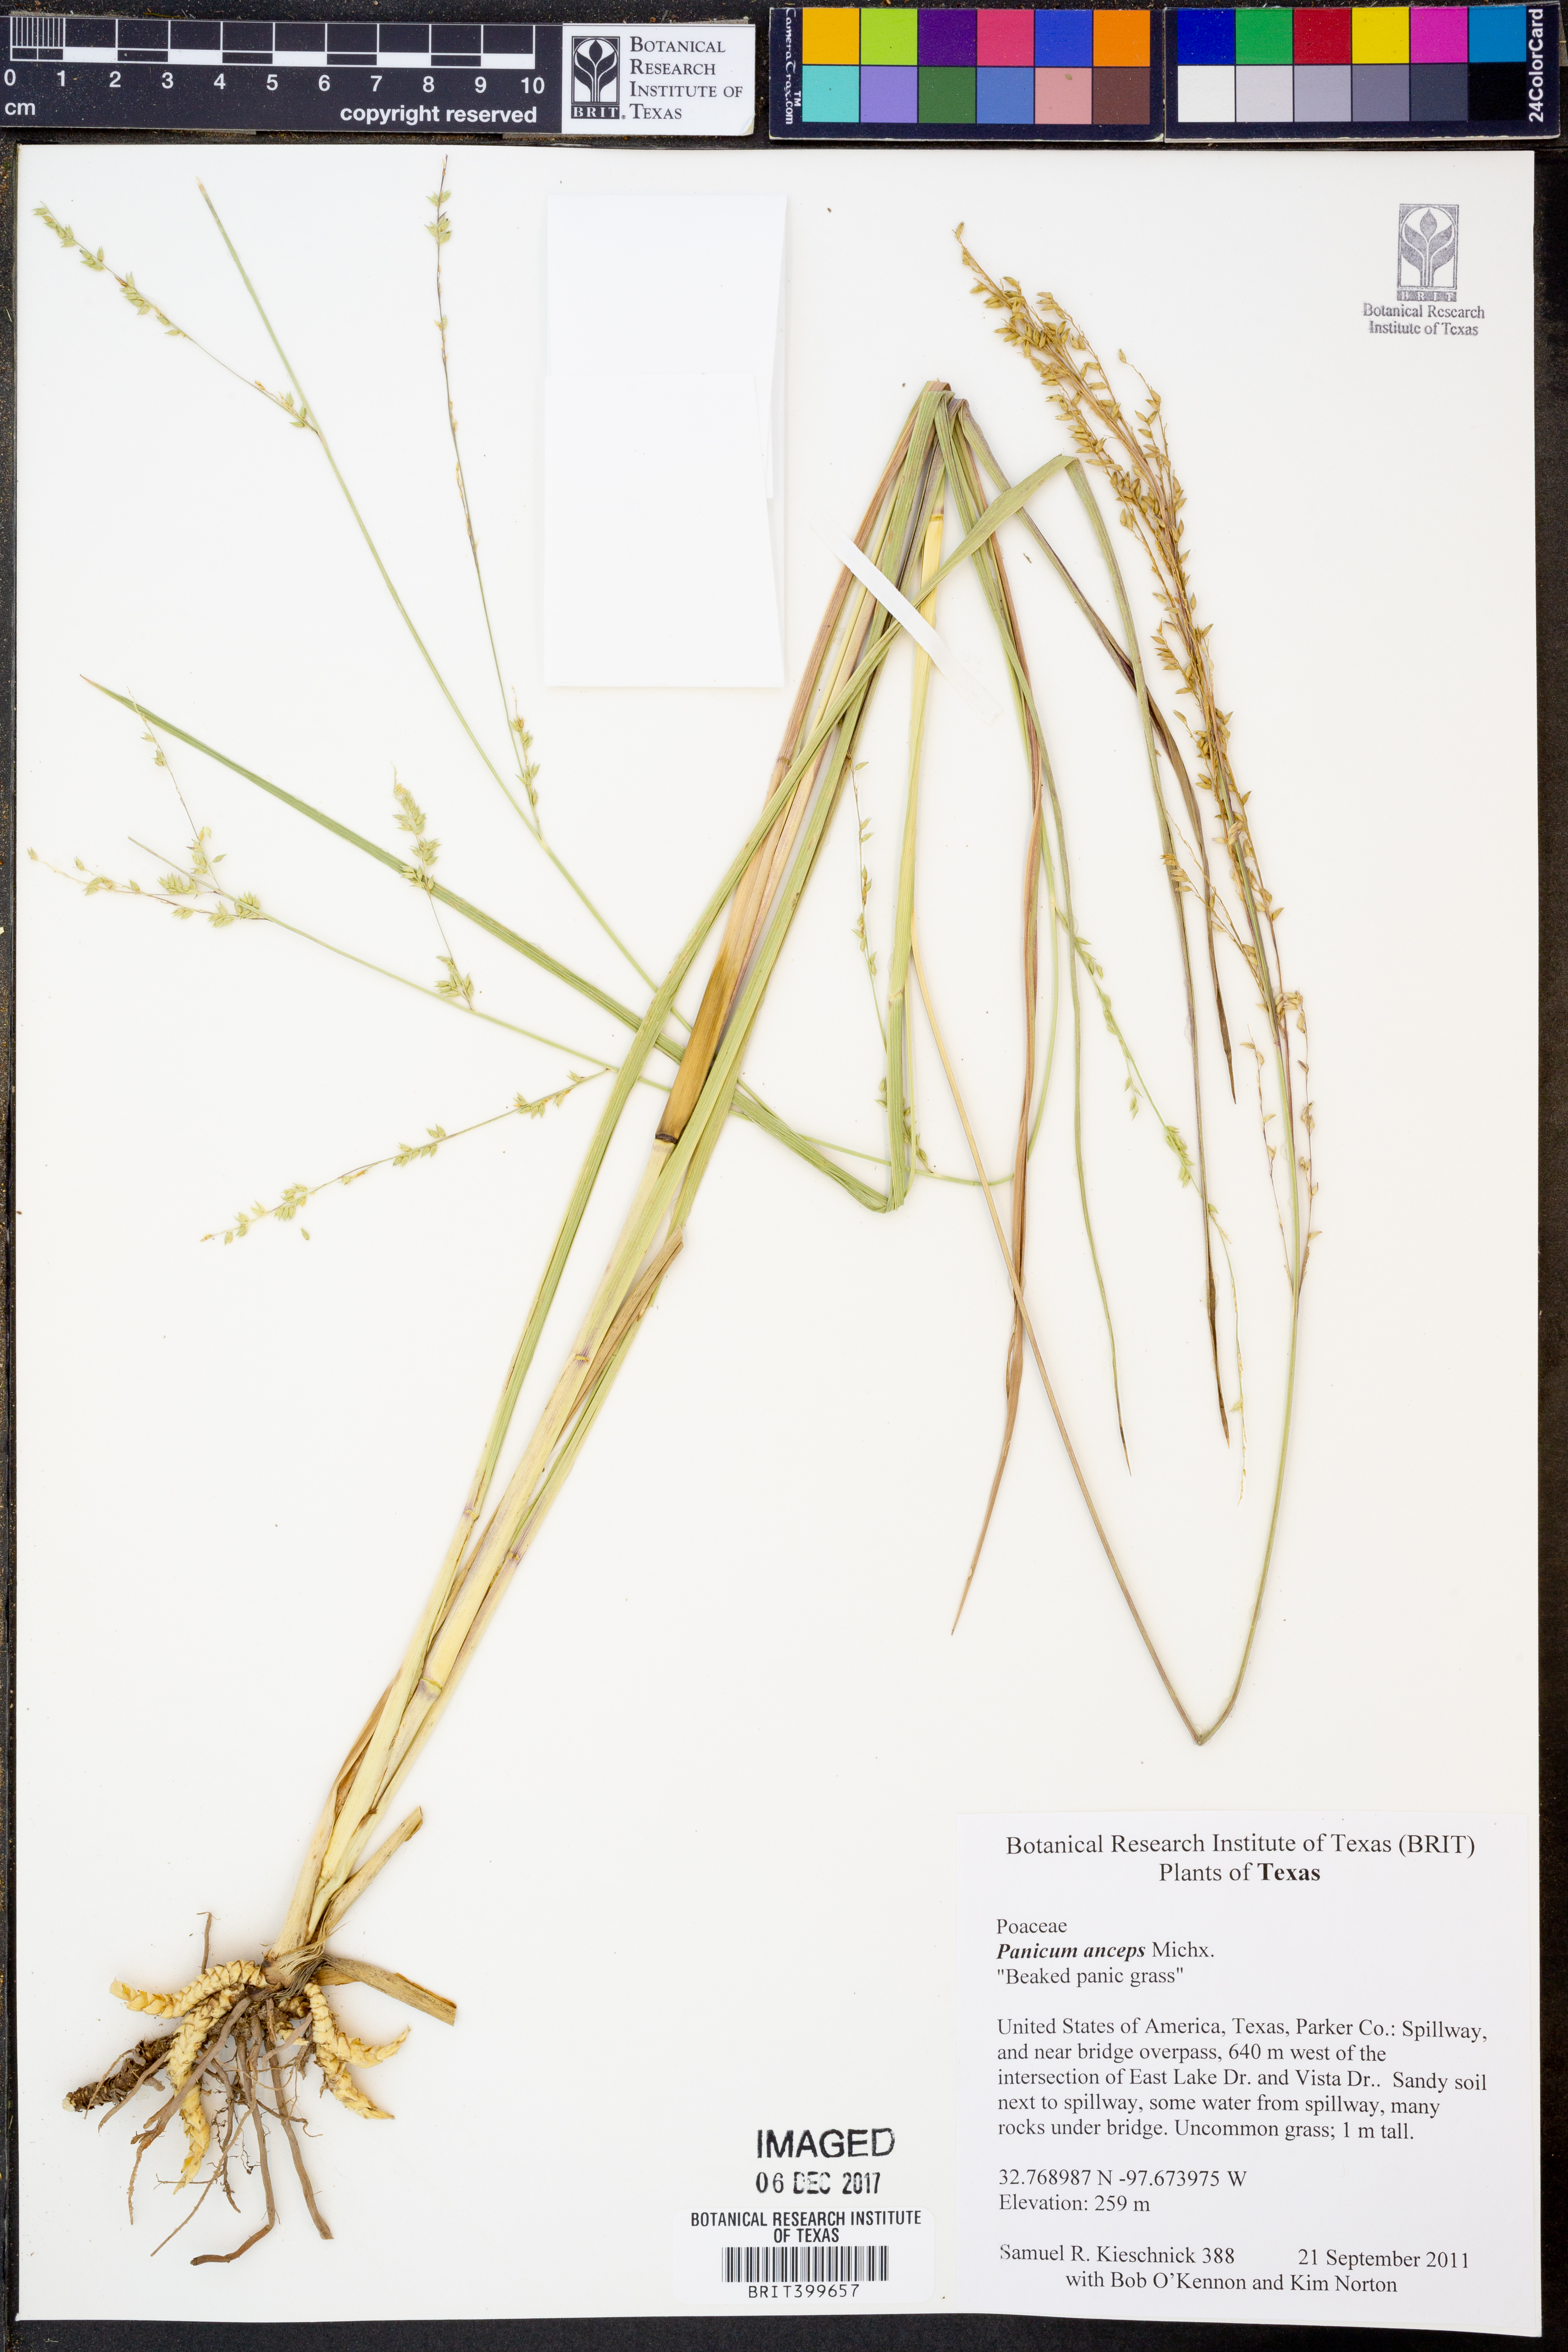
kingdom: Plantae
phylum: Tracheophyta
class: Liliopsida
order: Poales
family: Poaceae
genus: Coleataenia
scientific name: Coleataenia anceps
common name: Beaked panic grass
